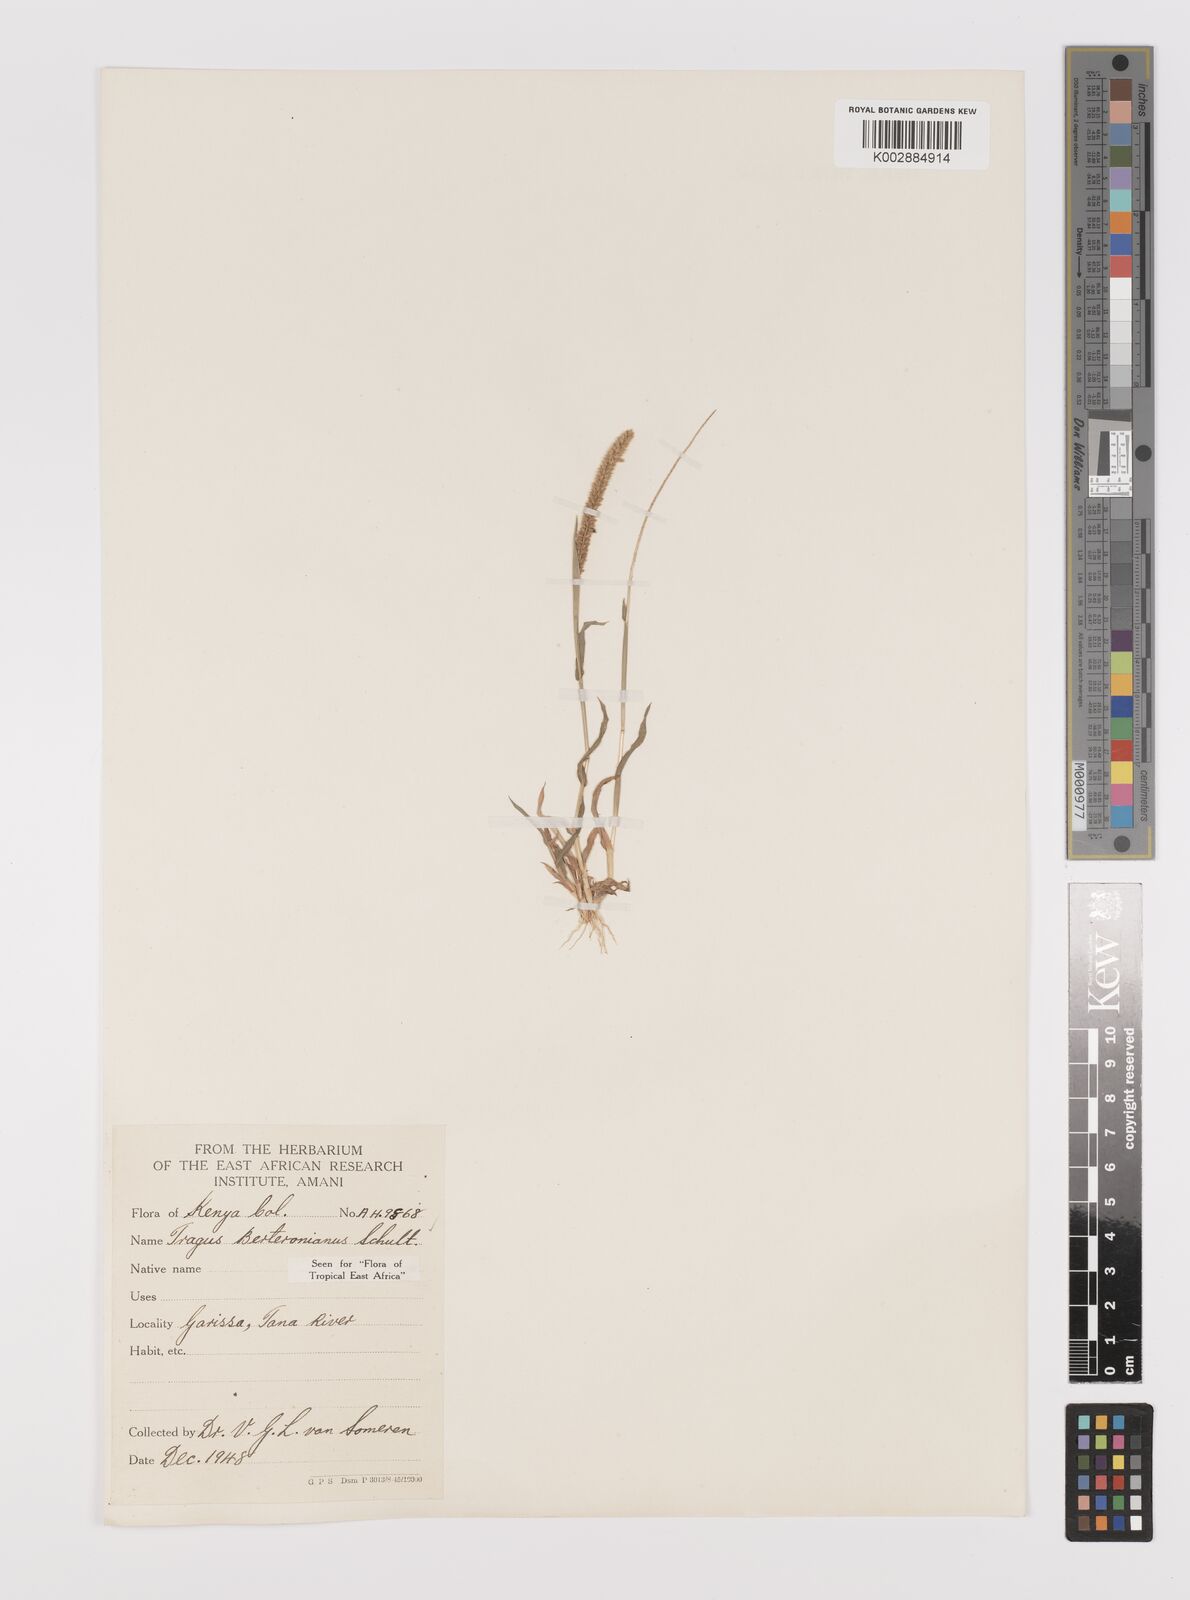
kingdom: Plantae
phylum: Tracheophyta
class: Liliopsida
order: Poales
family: Poaceae
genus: Tragus
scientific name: Tragus berteronianus
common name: African bur-grass
